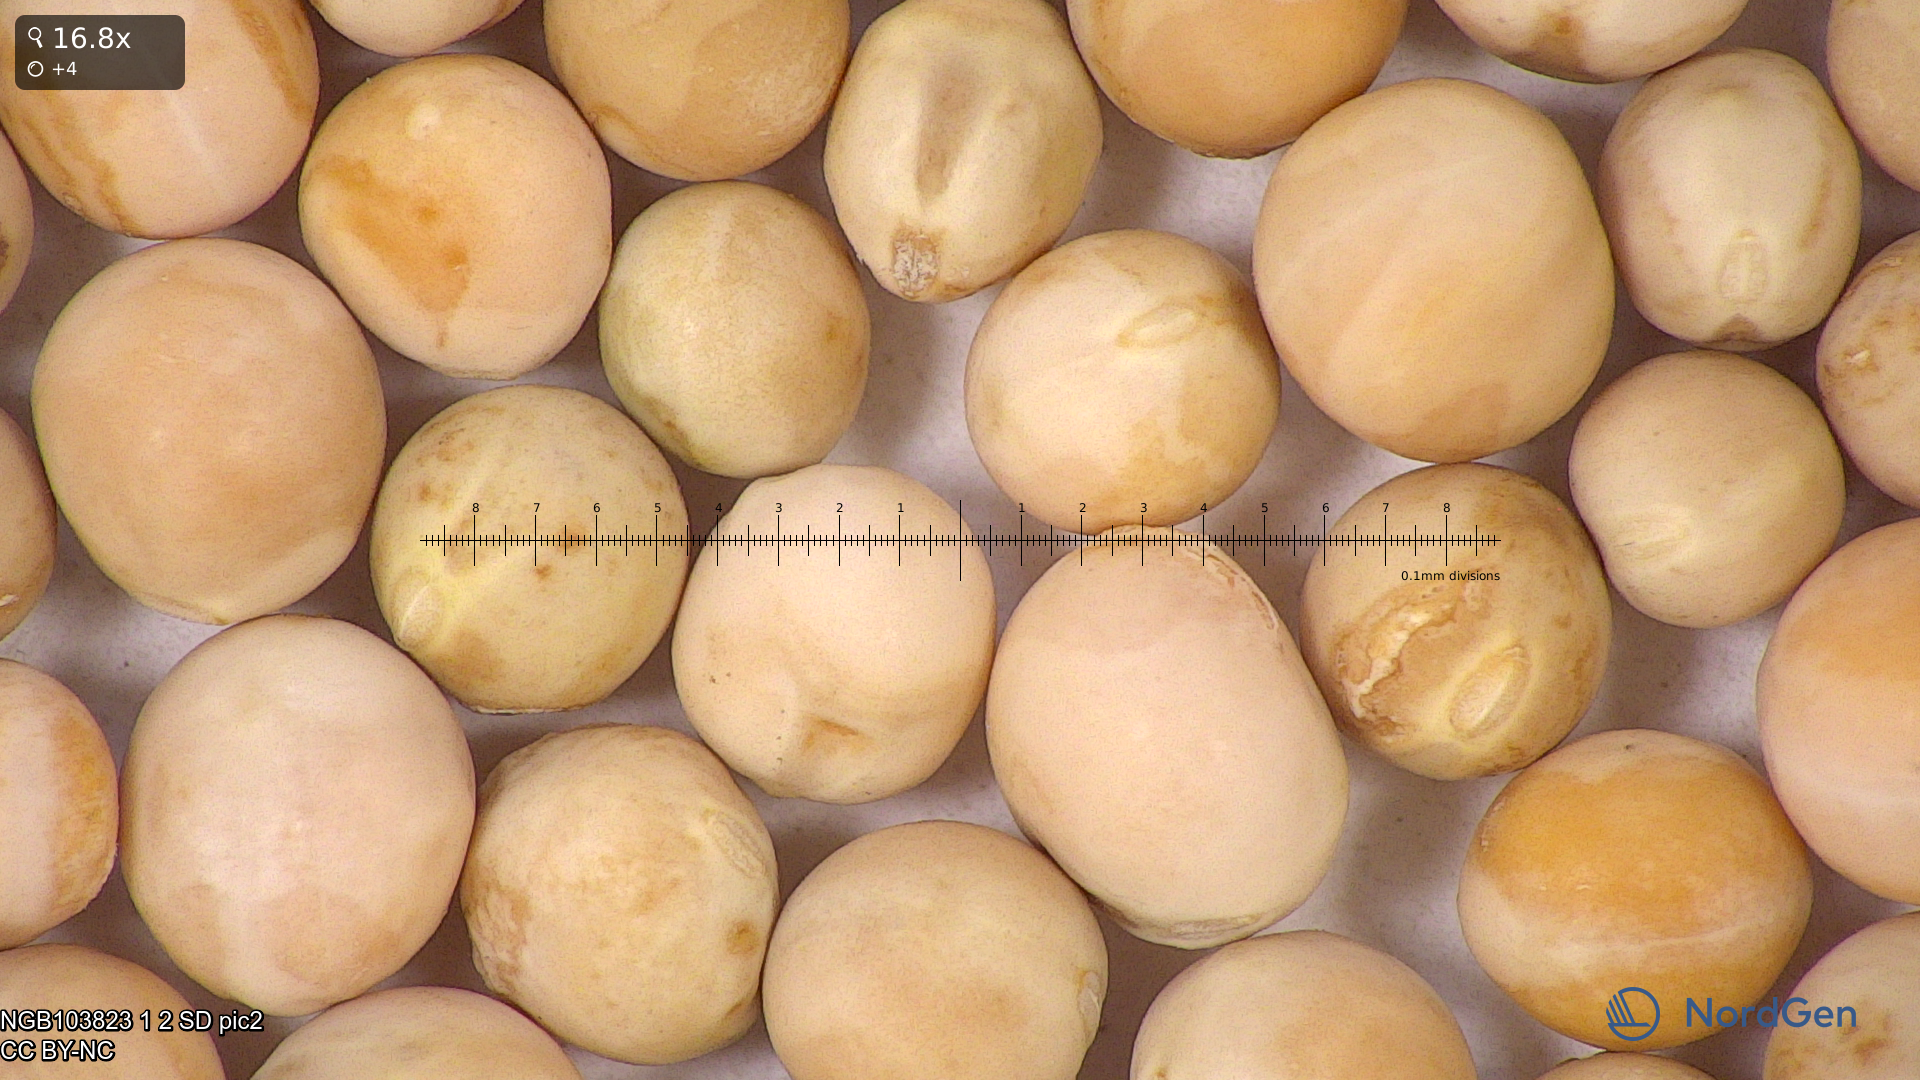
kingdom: Plantae
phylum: Tracheophyta
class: Magnoliopsida
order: Fabales
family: Fabaceae
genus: Lathyrus
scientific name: Lathyrus oleraceus
